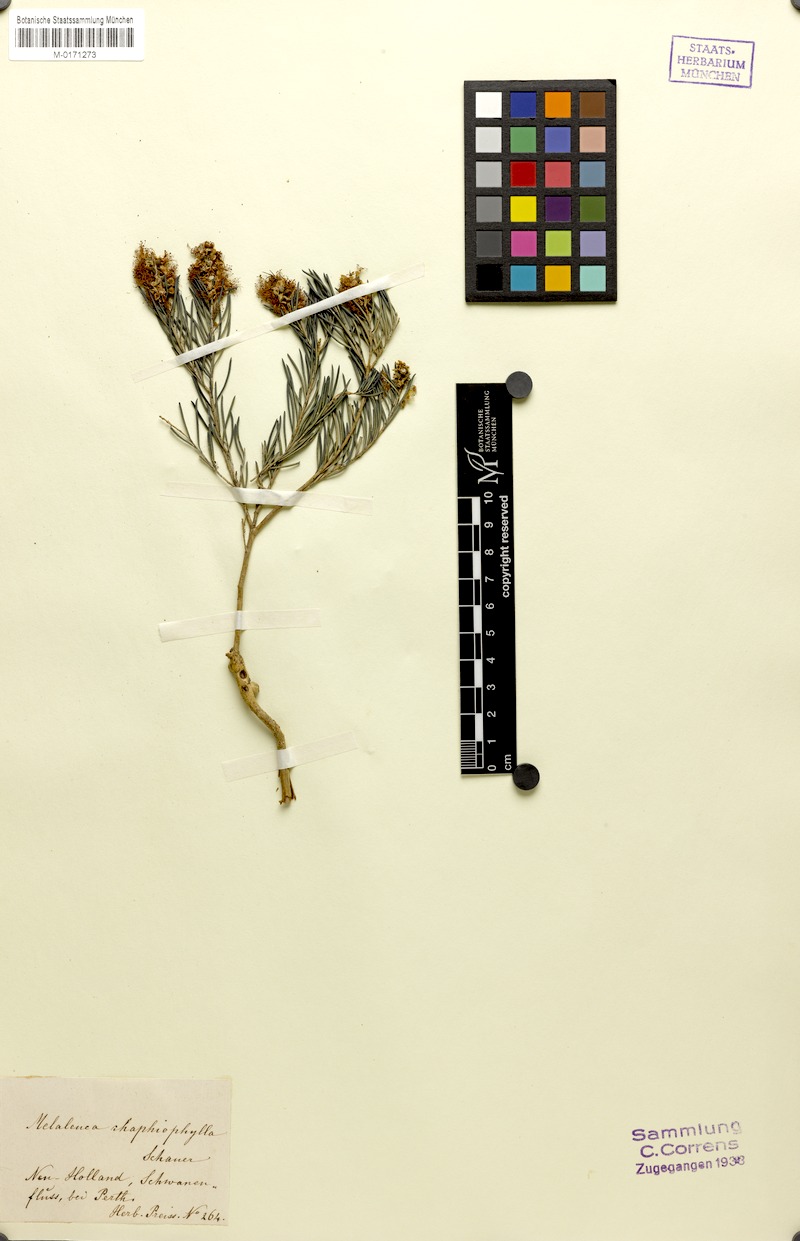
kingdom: Plantae
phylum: Tracheophyta
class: Magnoliopsida
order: Myrtales
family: Myrtaceae
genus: Melaleuca
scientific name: Melaleuca rhaphiophylla
